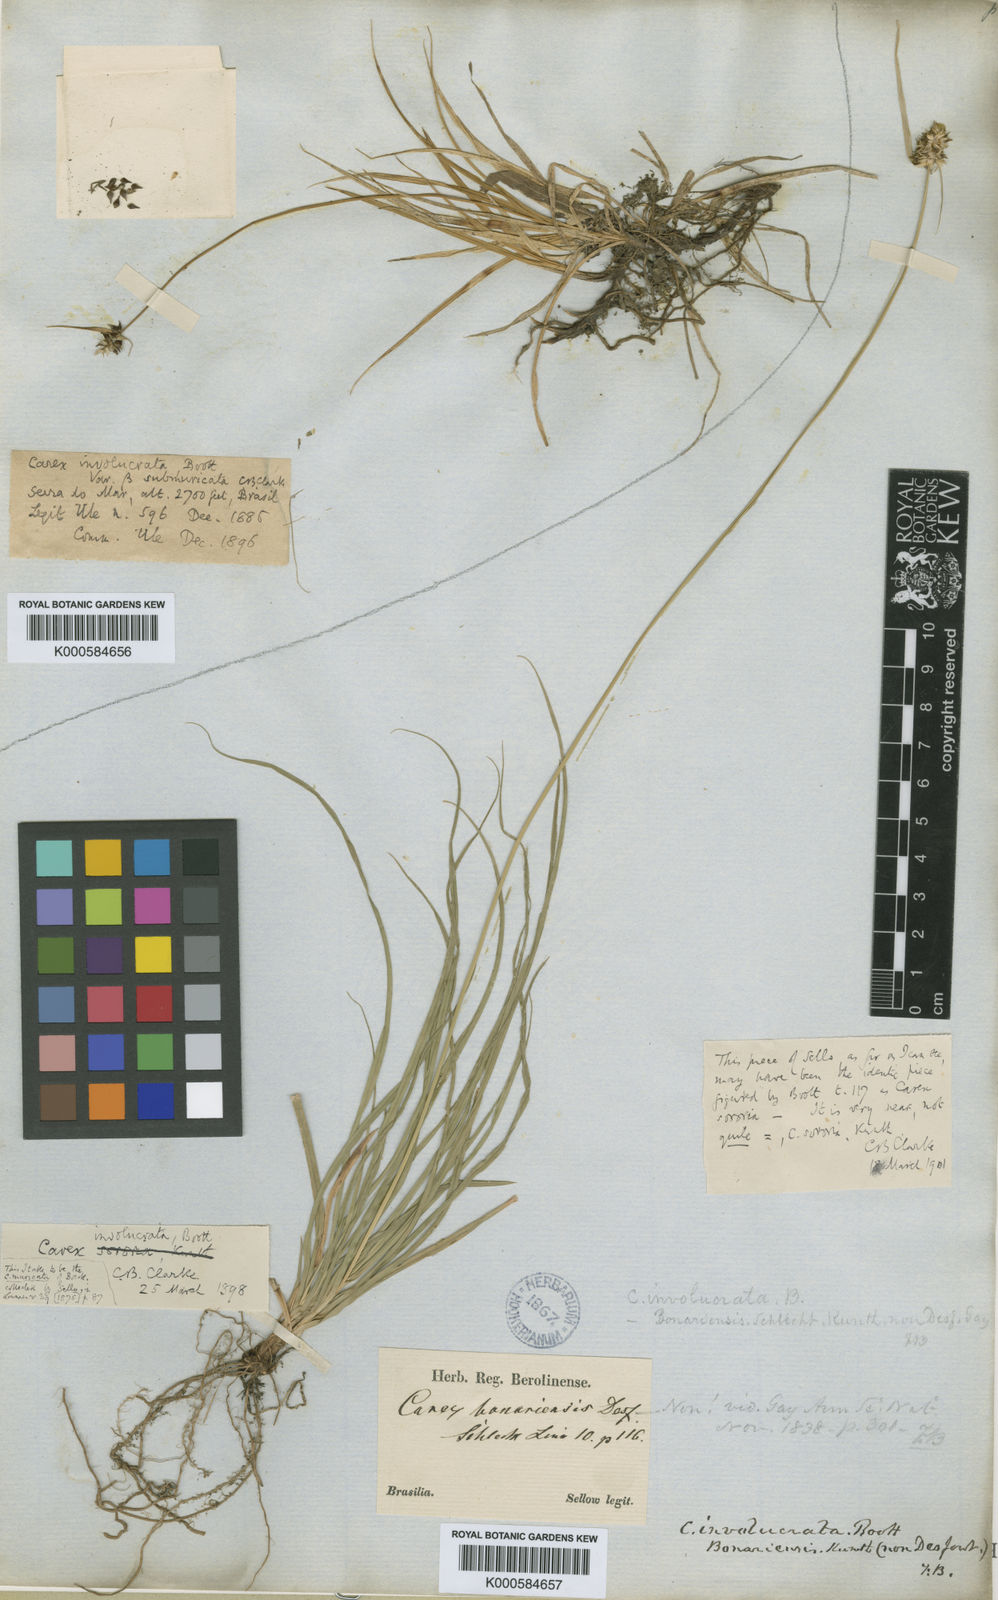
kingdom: Plantae
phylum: Tracheophyta
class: Liliopsida
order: Poales
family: Cyperaceae
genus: Carex
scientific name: Carex sororia
